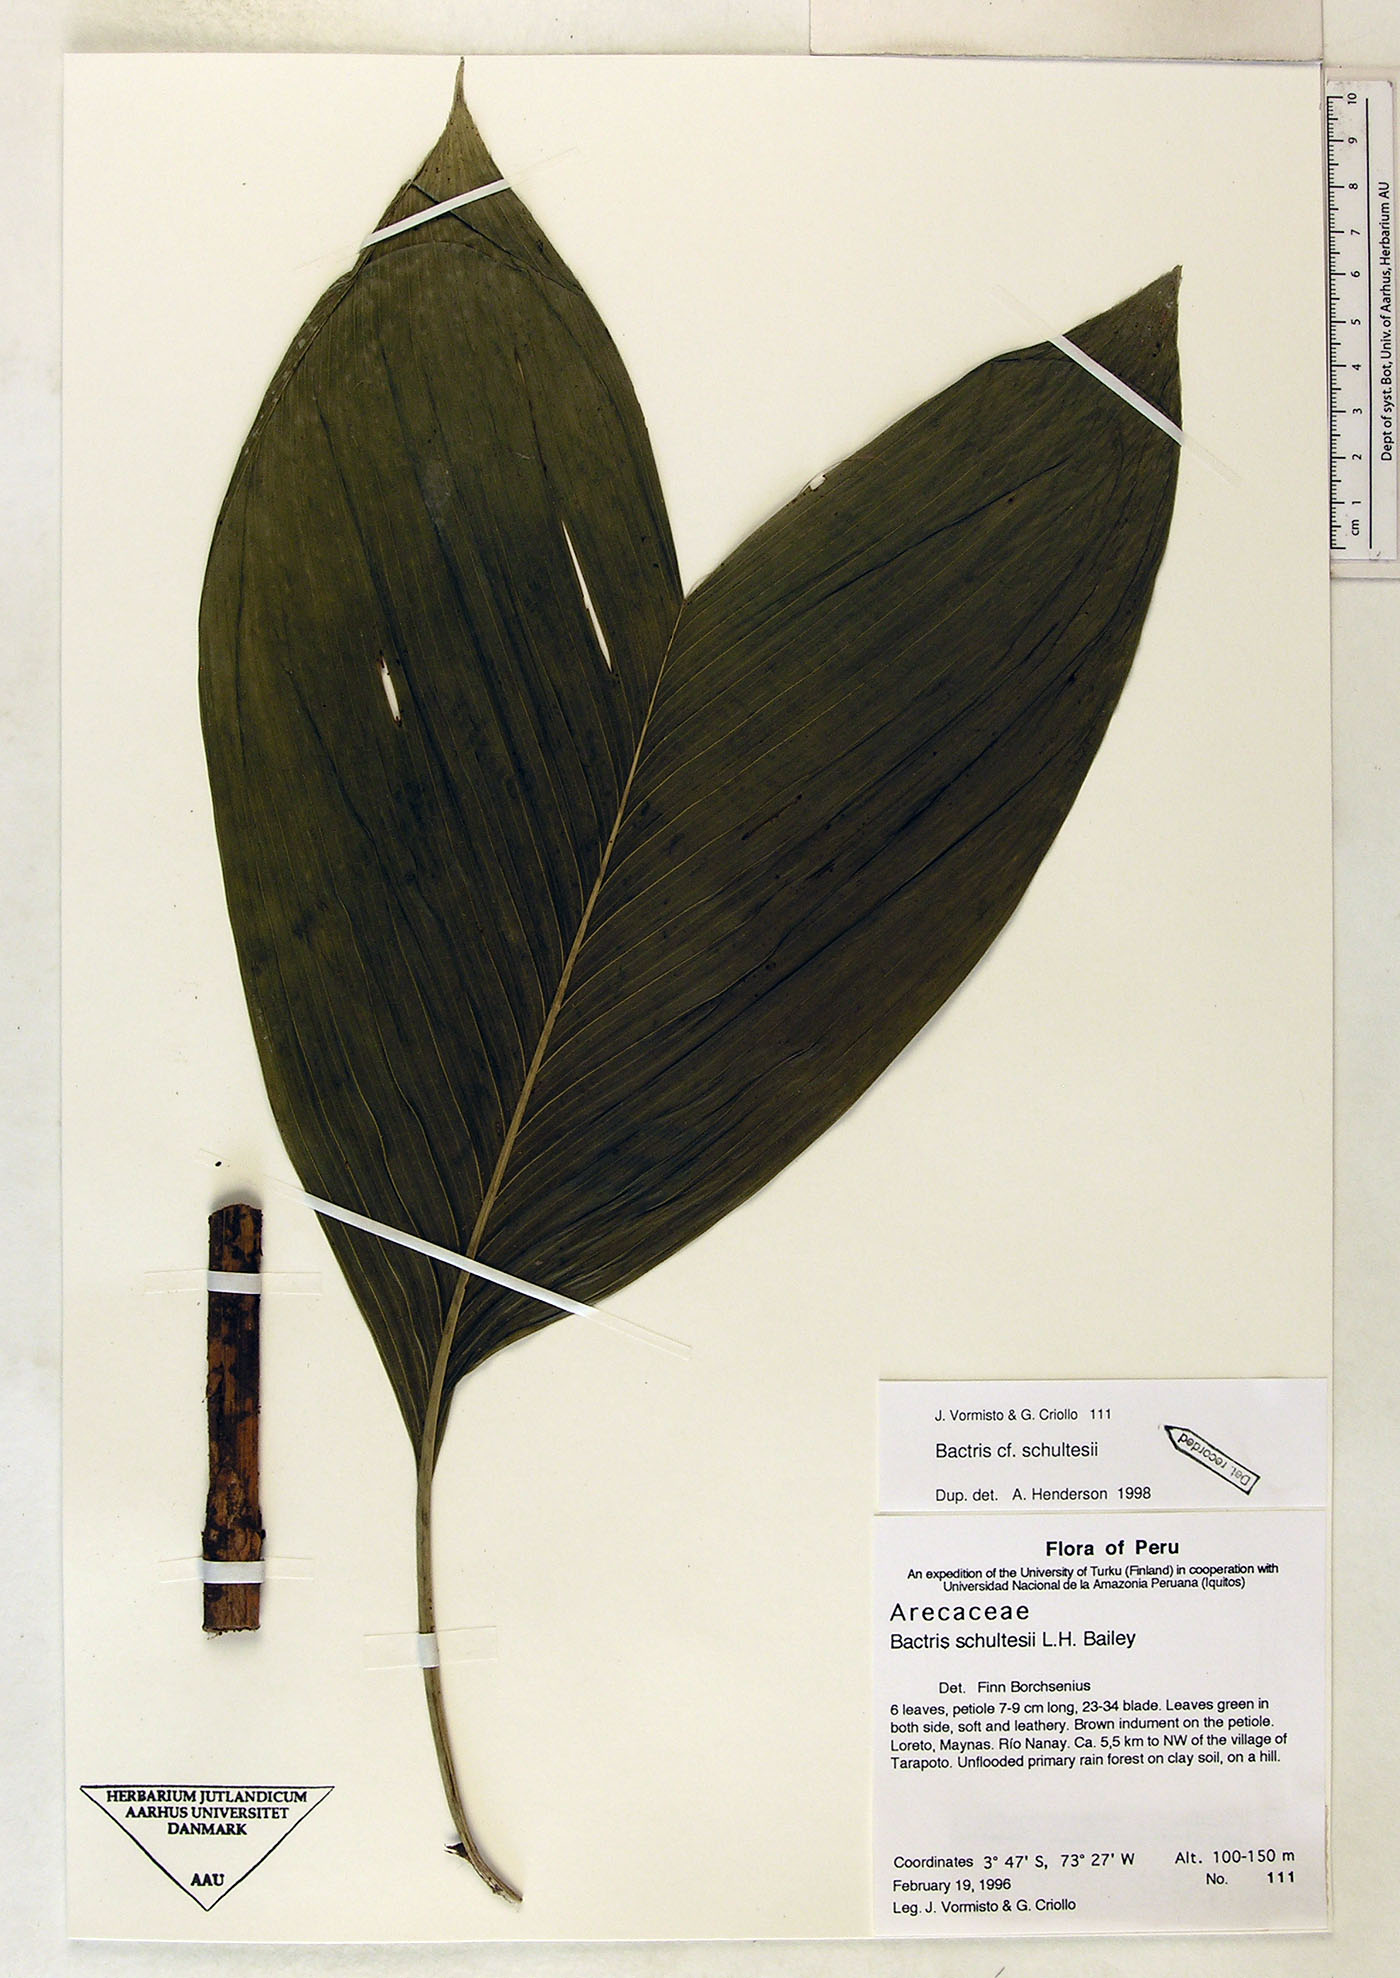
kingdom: Plantae
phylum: Tracheophyta
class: Liliopsida
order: Arecales
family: Arecaceae
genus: Bactris
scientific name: Bactris schultesii
